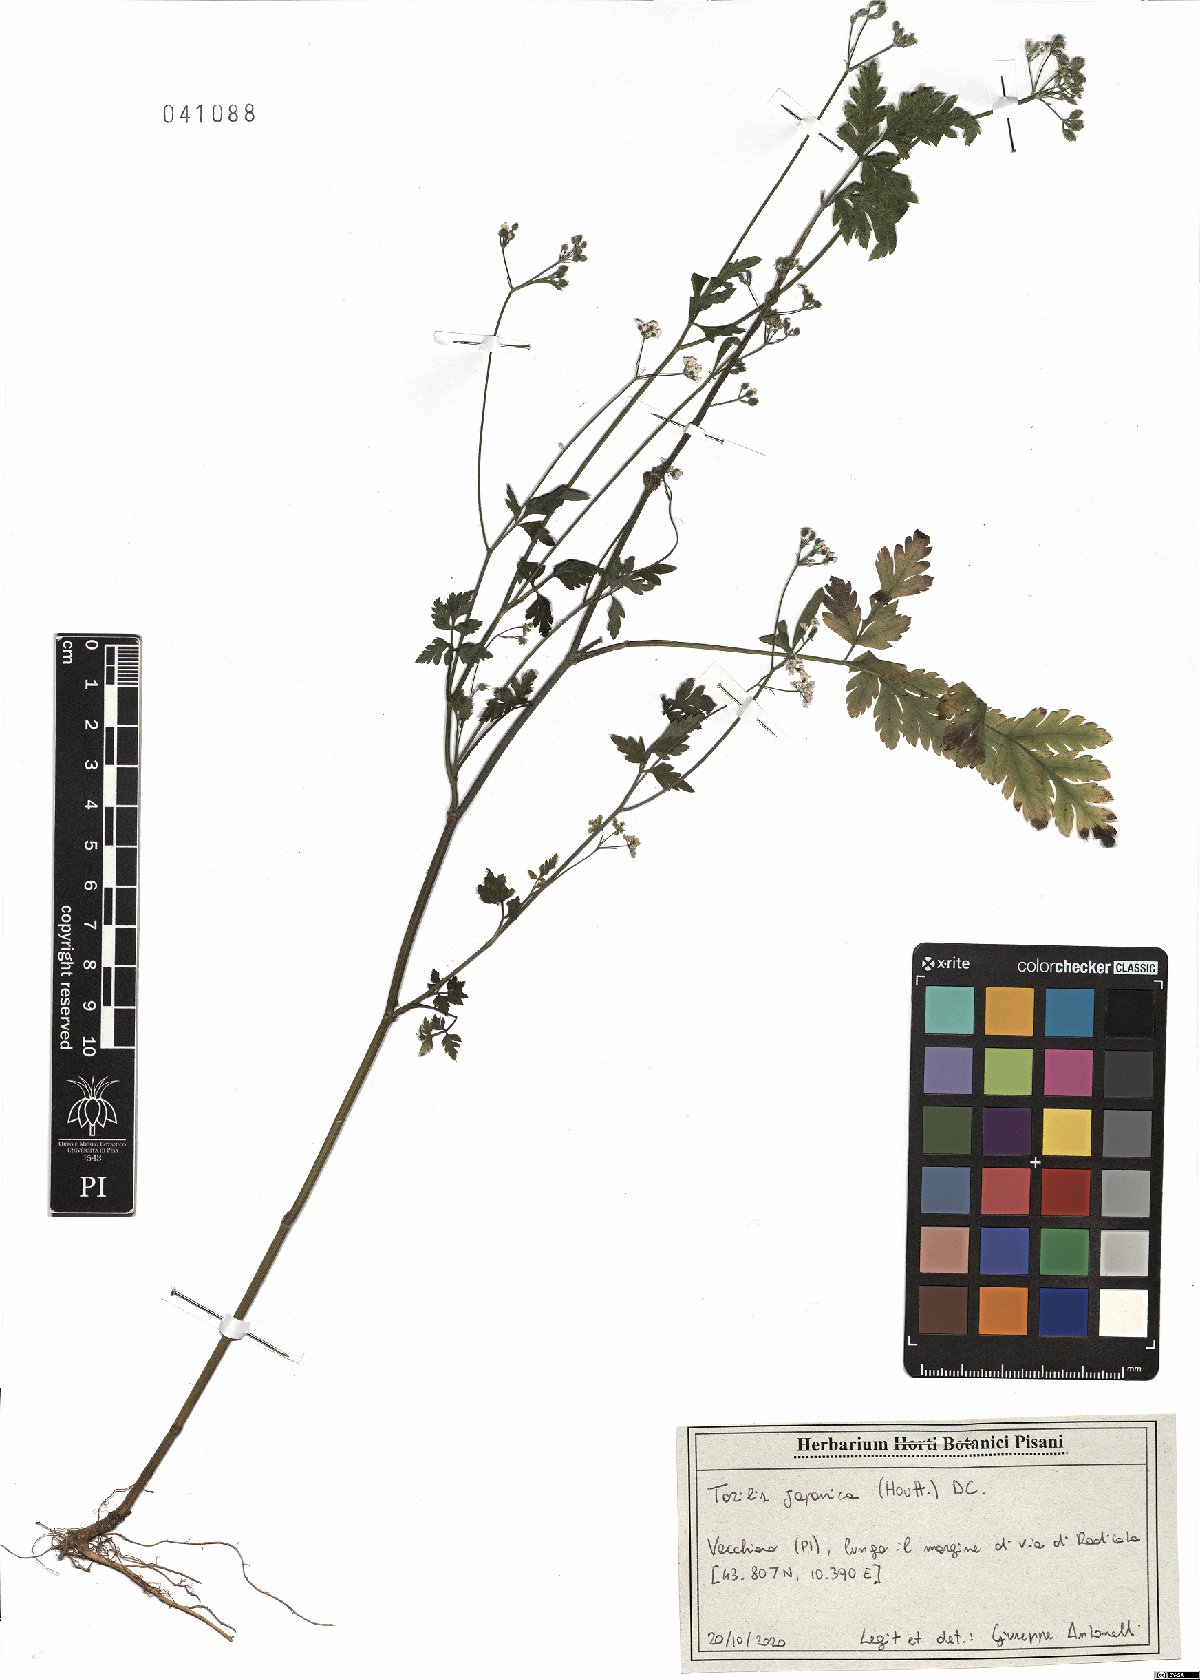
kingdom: Plantae
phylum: Tracheophyta
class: Magnoliopsida
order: Apiales
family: Apiaceae
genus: Torilis
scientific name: Torilis japonica
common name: Upright hedge-parsley
